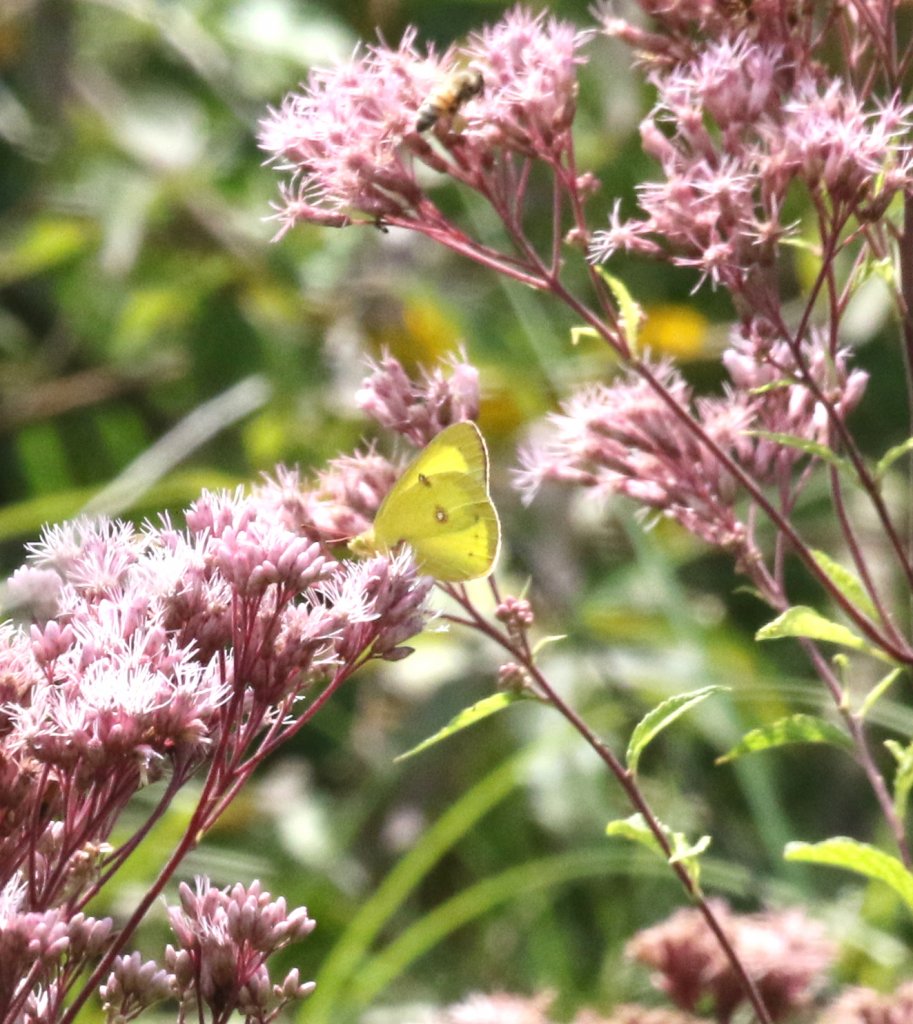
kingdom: Animalia
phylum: Arthropoda
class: Insecta
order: Lepidoptera
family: Pieridae
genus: Colias
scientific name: Colias philodice
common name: Clouded Sulphur
